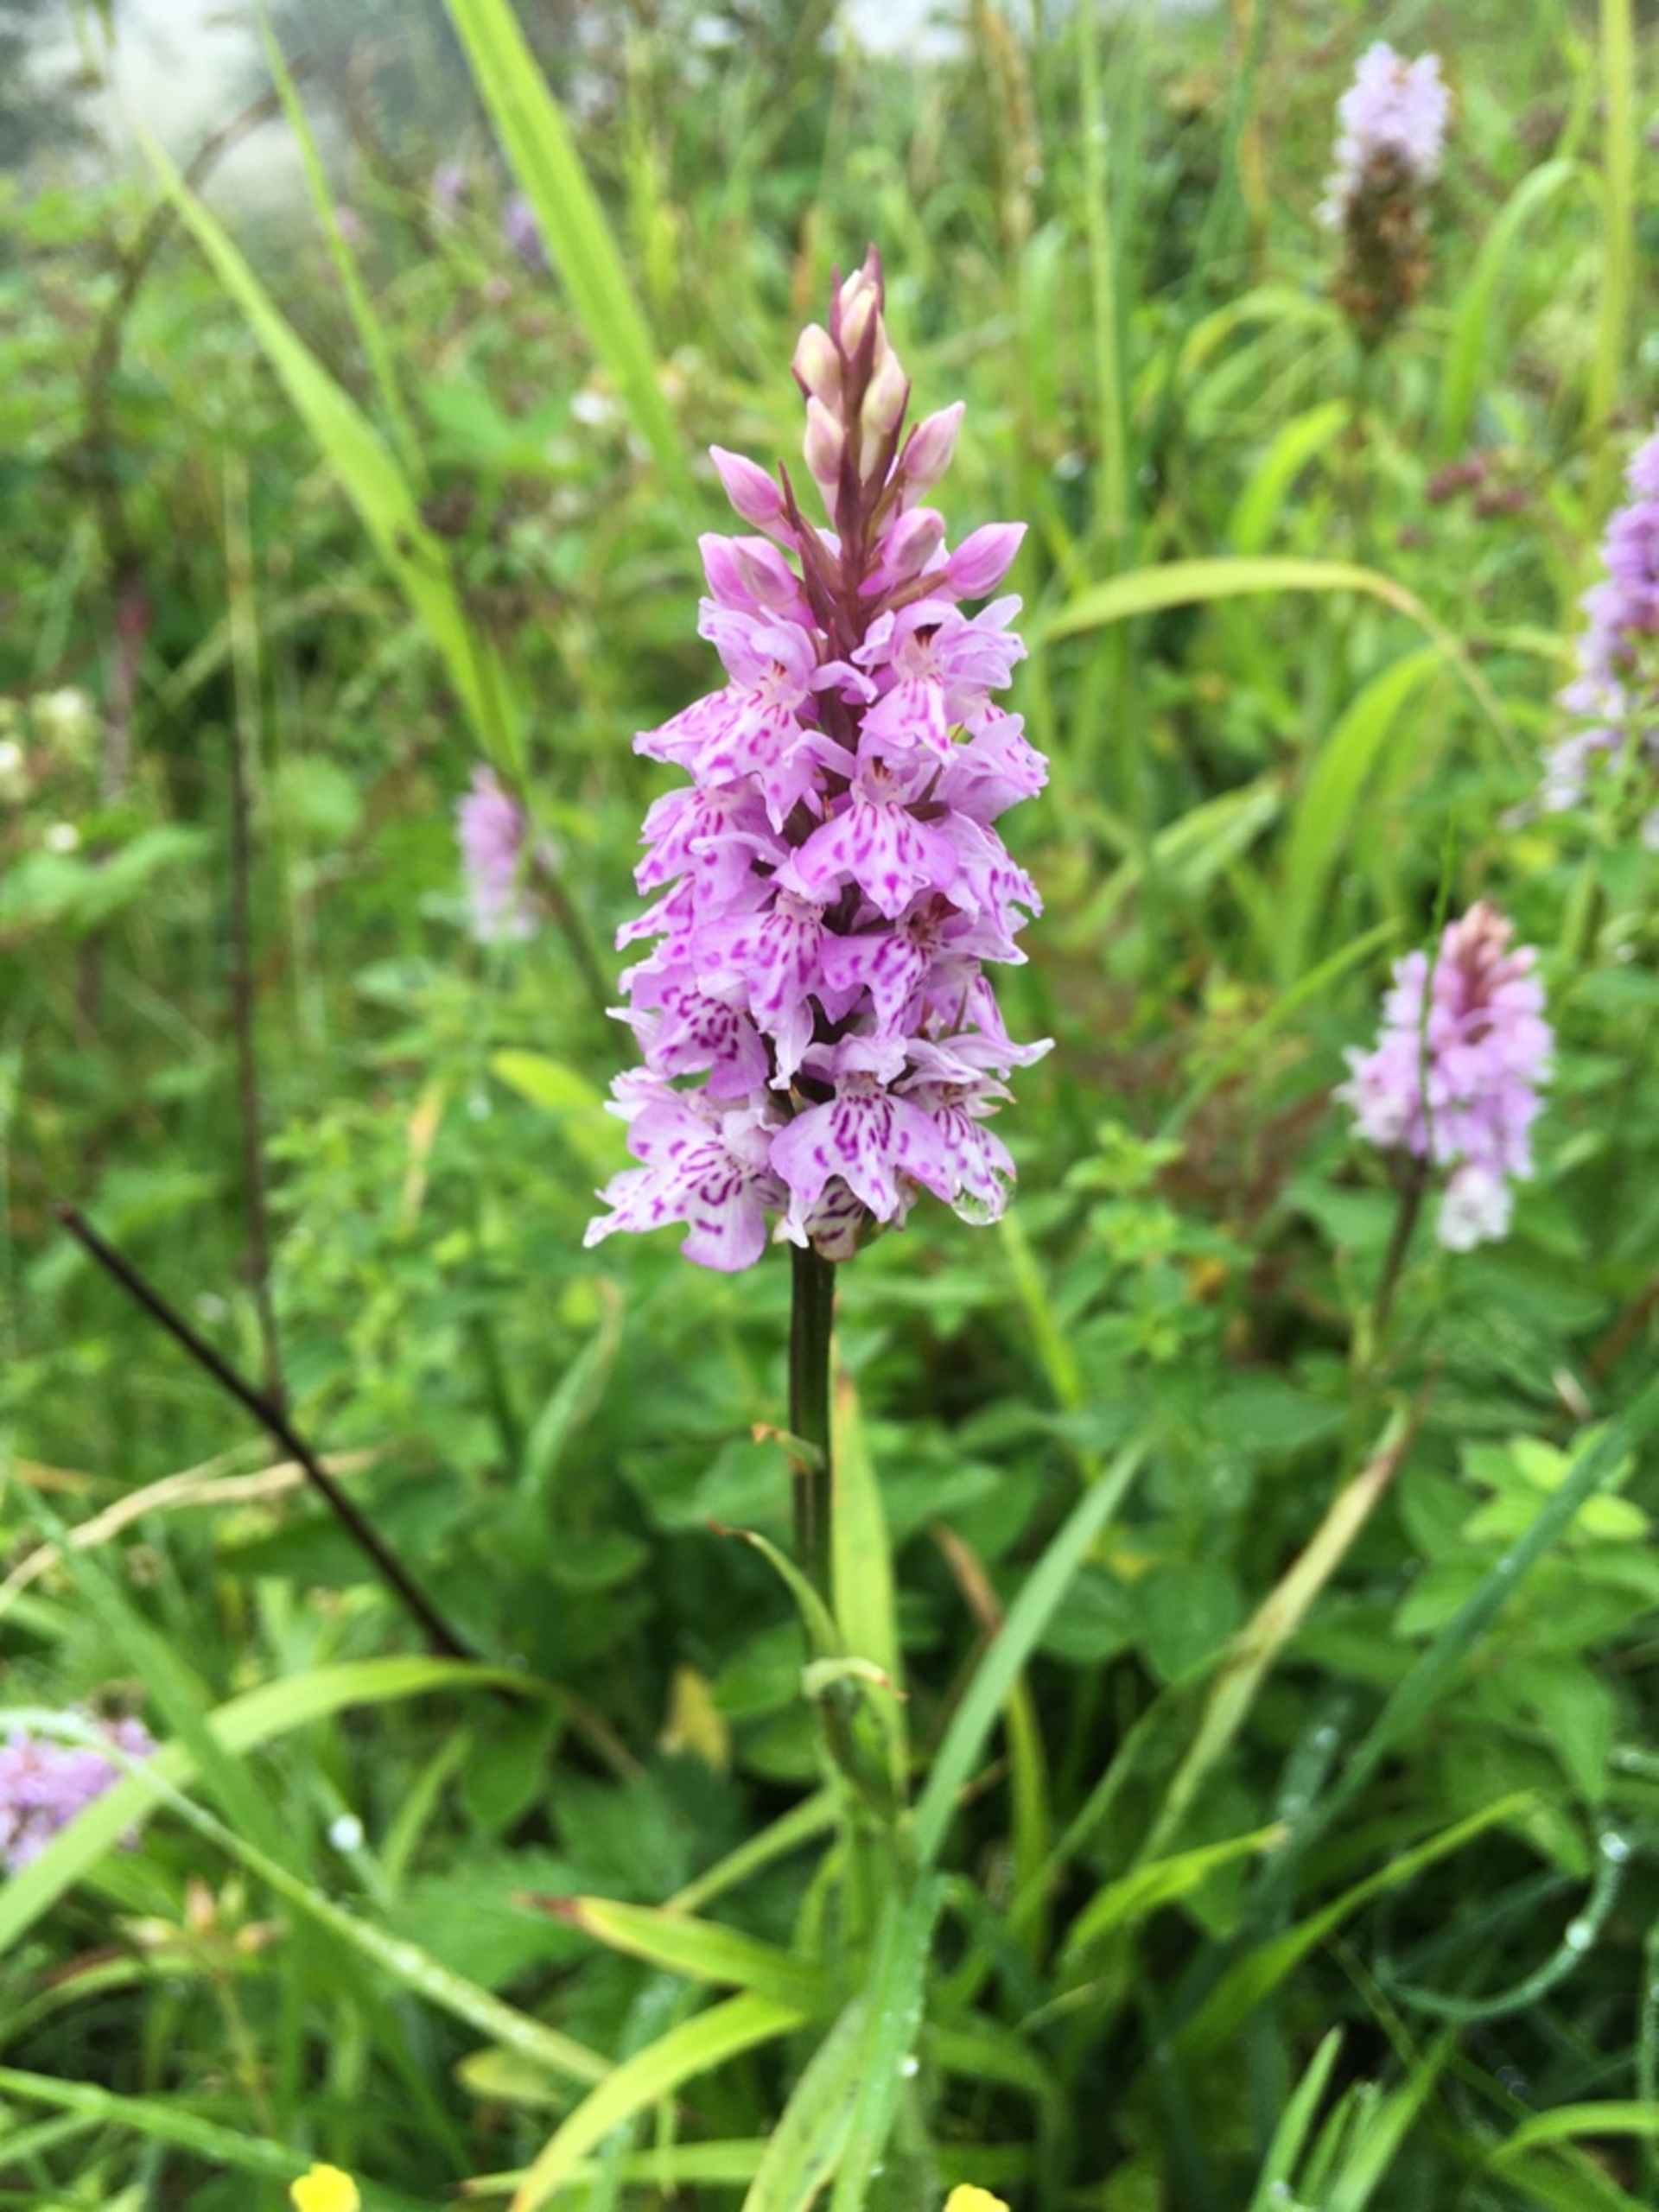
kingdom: Plantae
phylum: Tracheophyta
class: Liliopsida
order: Asparagales
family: Orchidaceae
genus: Dactylorhiza
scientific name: Dactylorhiza maculata
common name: Skov-gøgeurt
